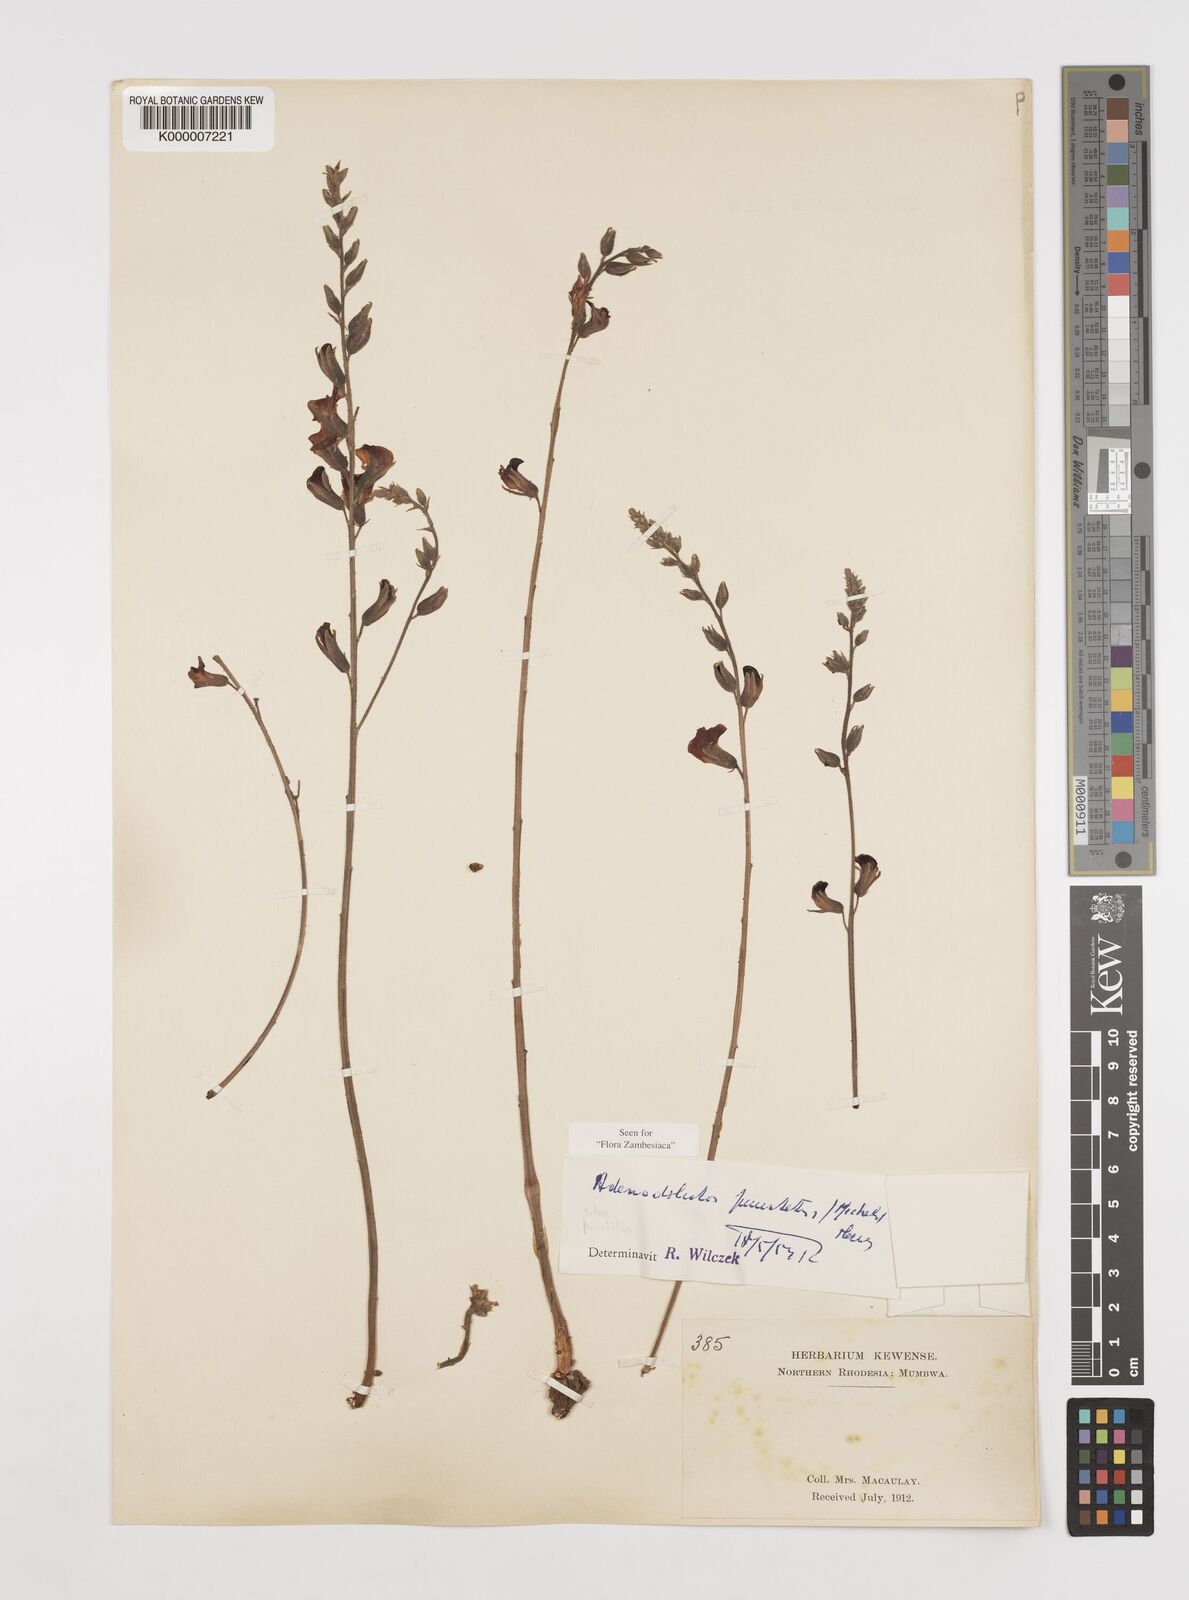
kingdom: Plantae
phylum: Tracheophyta
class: Magnoliopsida
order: Fabales
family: Fabaceae
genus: Adenodolichos
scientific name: Adenodolichos punctatus
